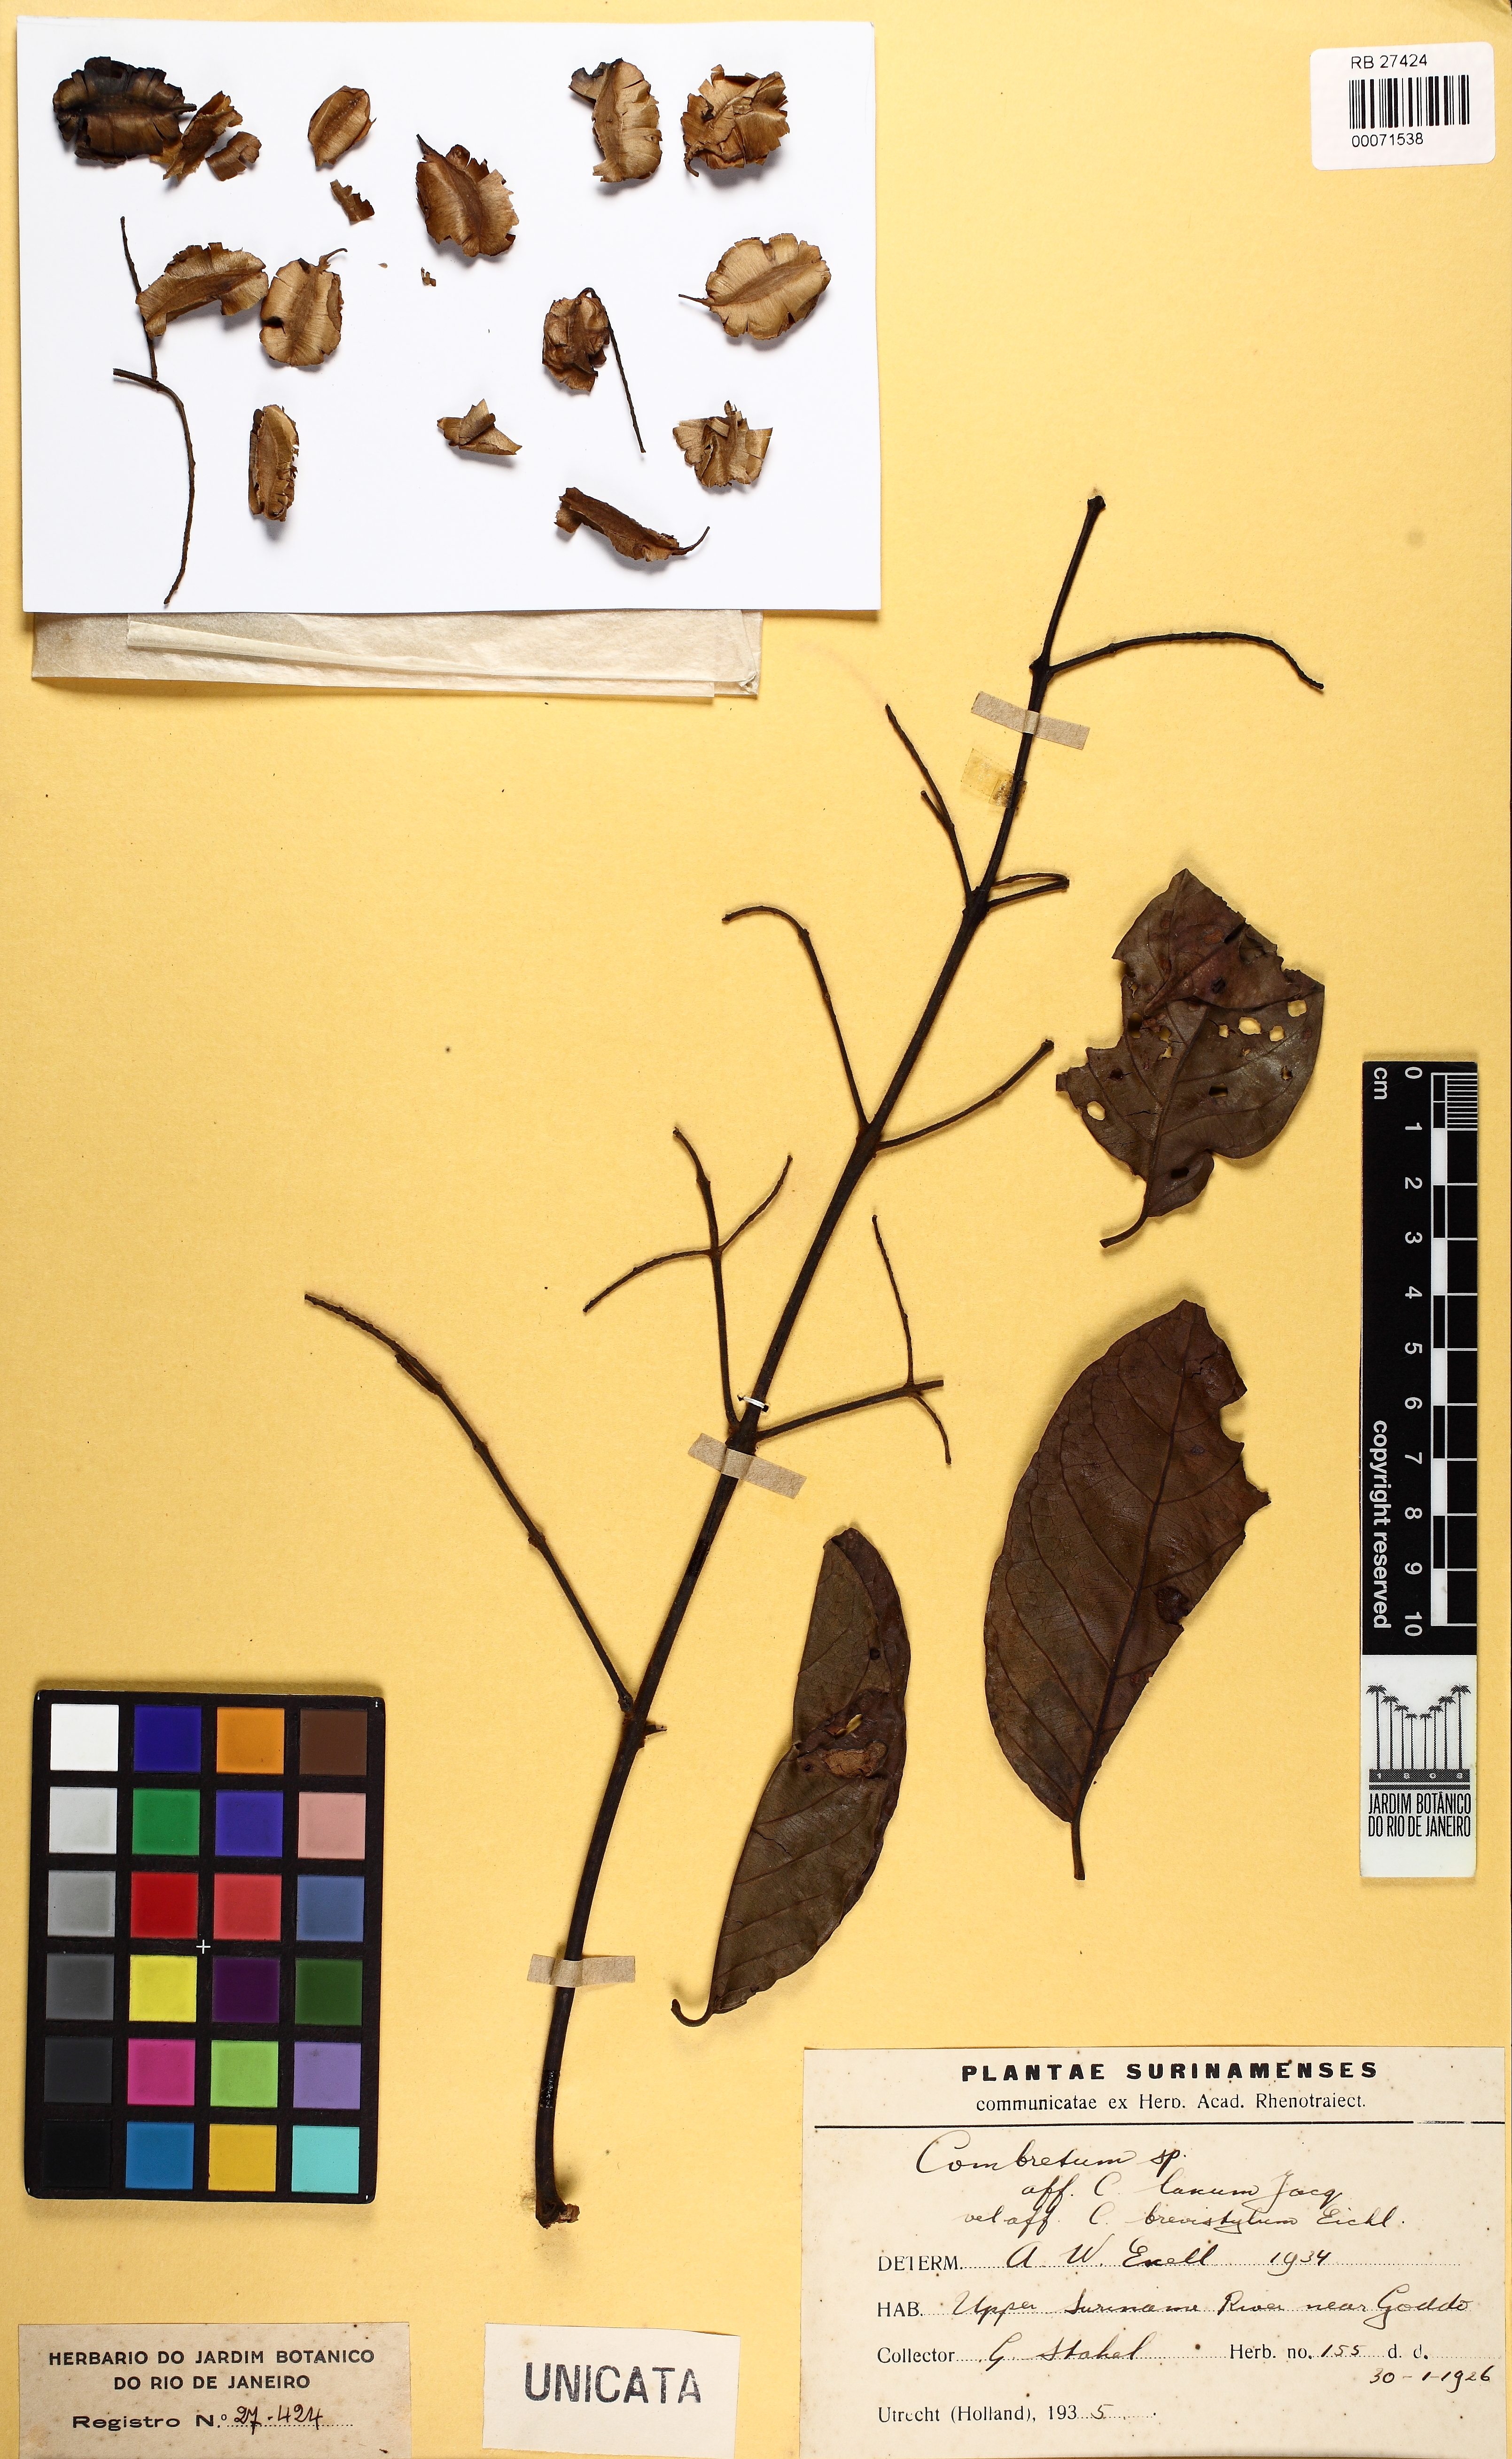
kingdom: Plantae
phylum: Tracheophyta
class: Magnoliopsida
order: Myrtales
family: Combretaceae
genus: Combretum
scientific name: Combretum laxum
